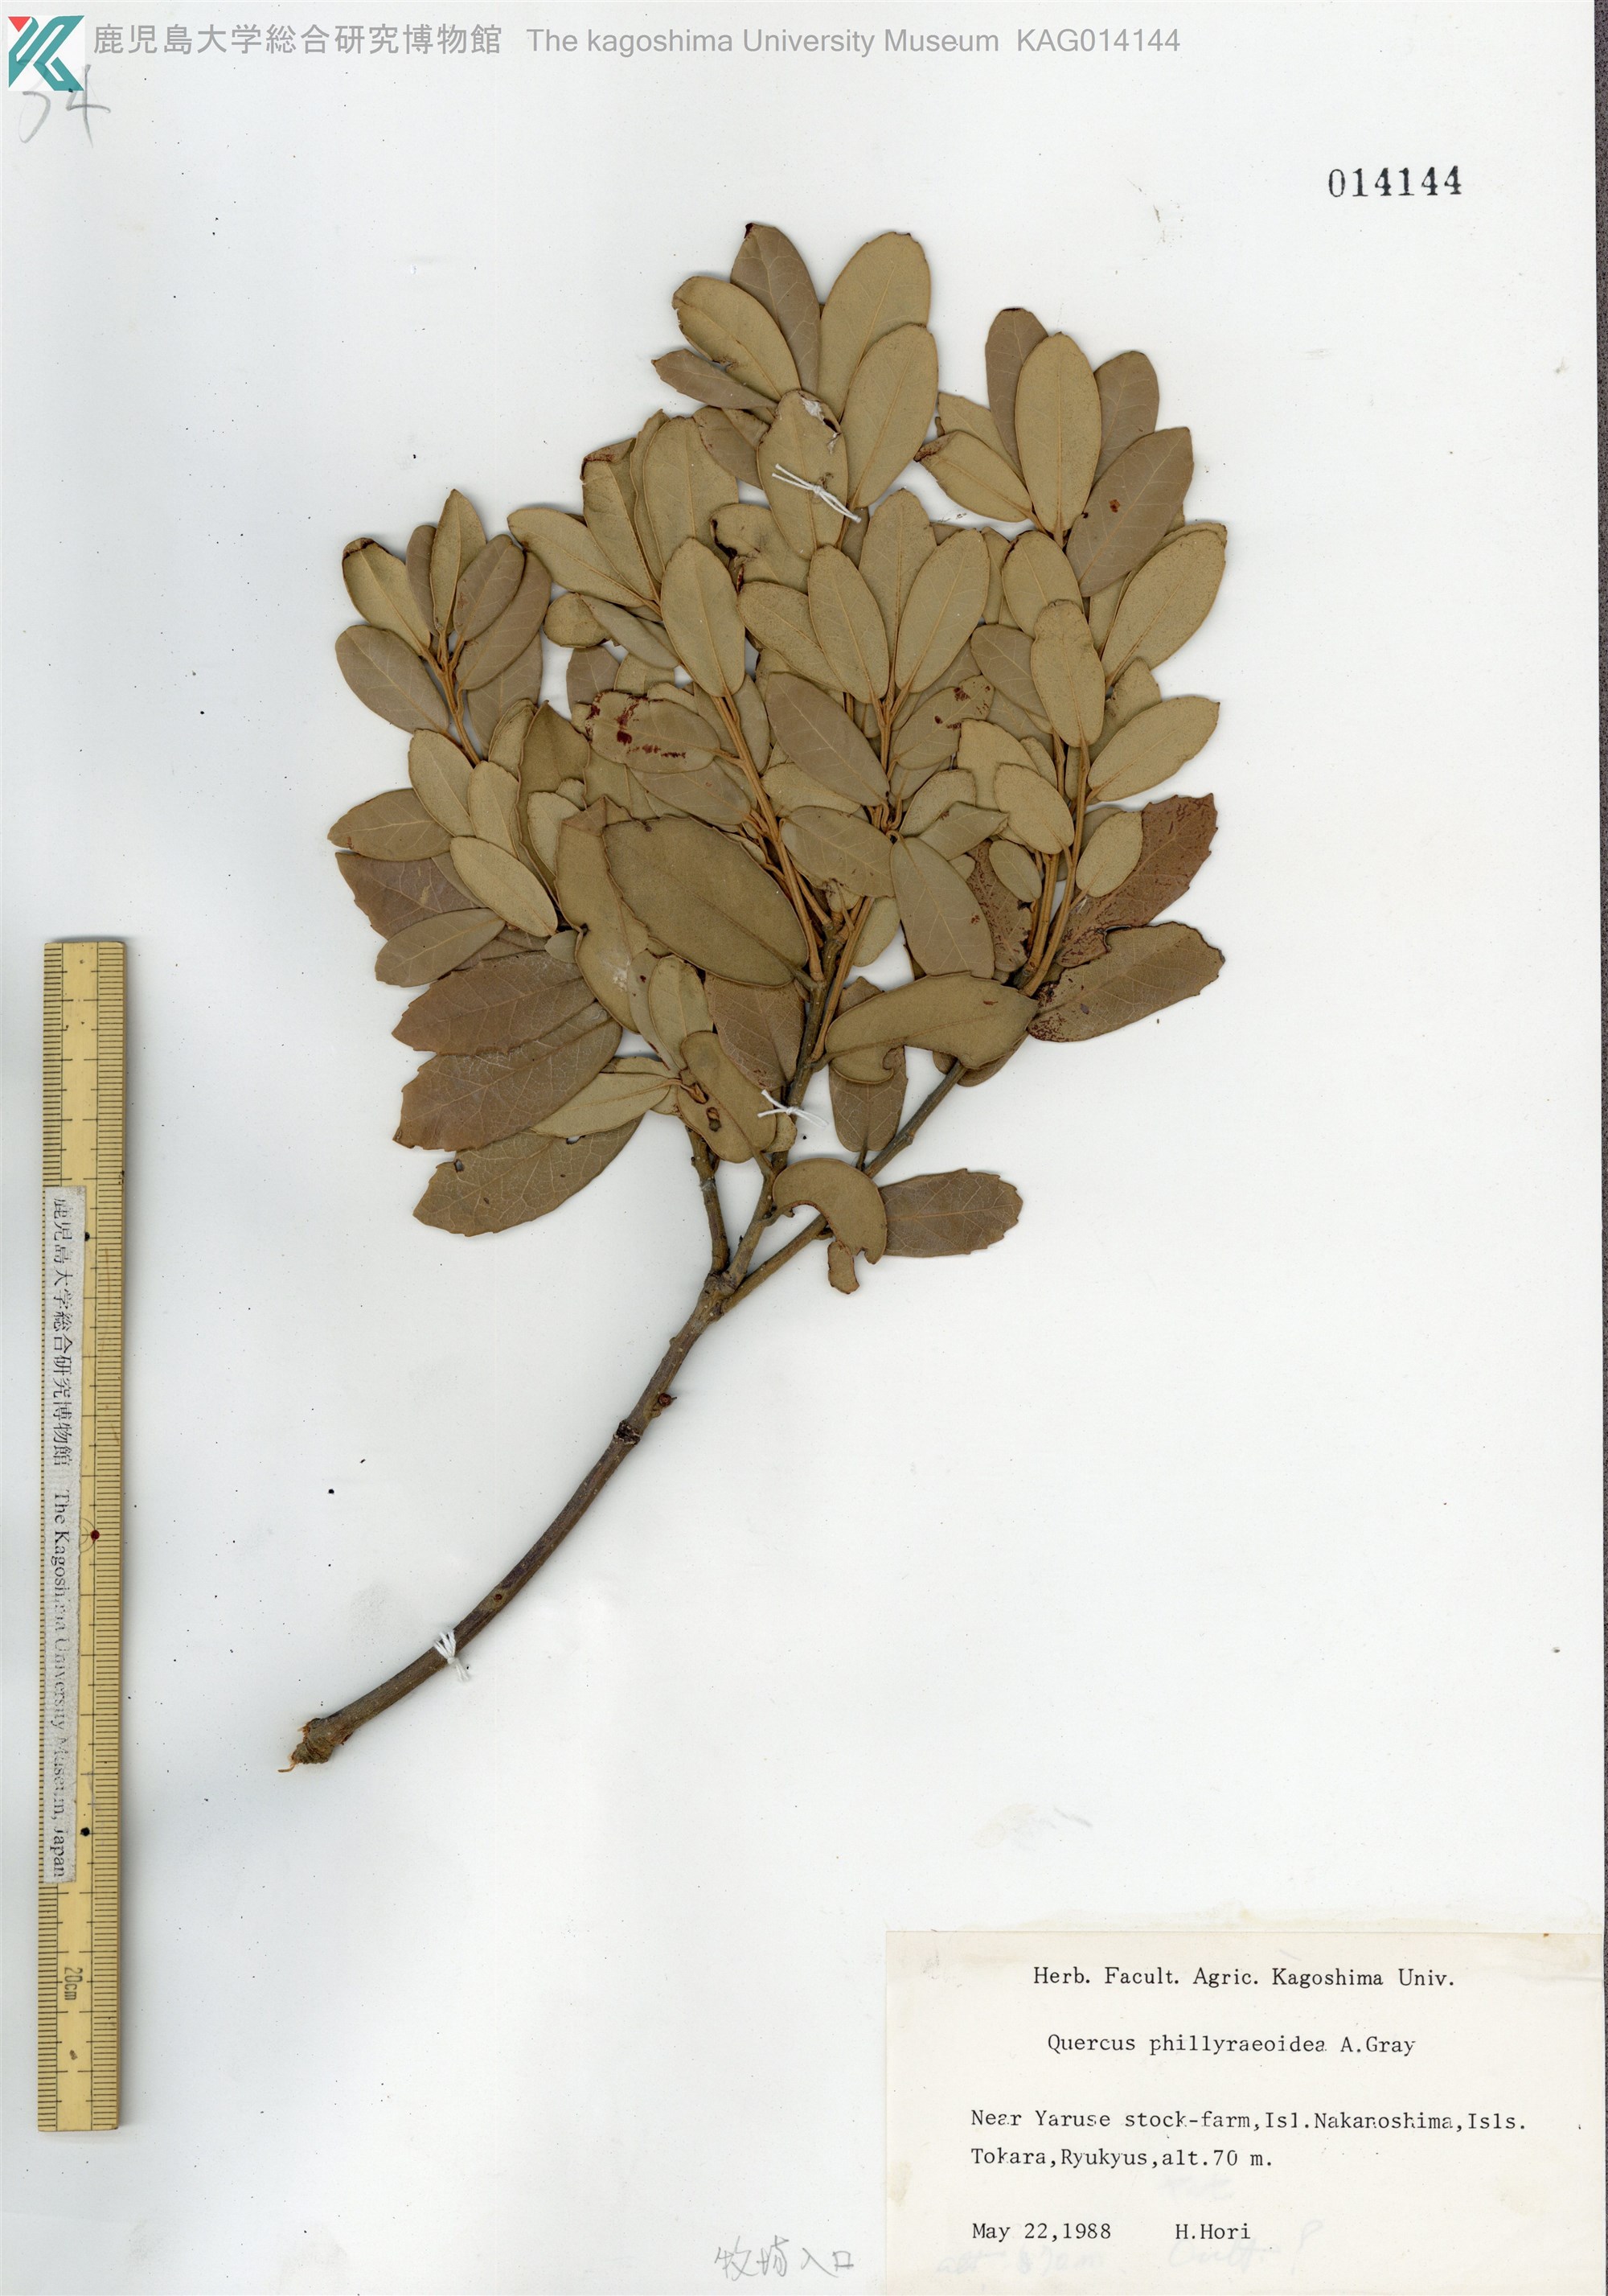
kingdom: Plantae
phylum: Tracheophyta
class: Magnoliopsida
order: Fagales
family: Fagaceae
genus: Quercus
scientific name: Quercus phillyraeoides
